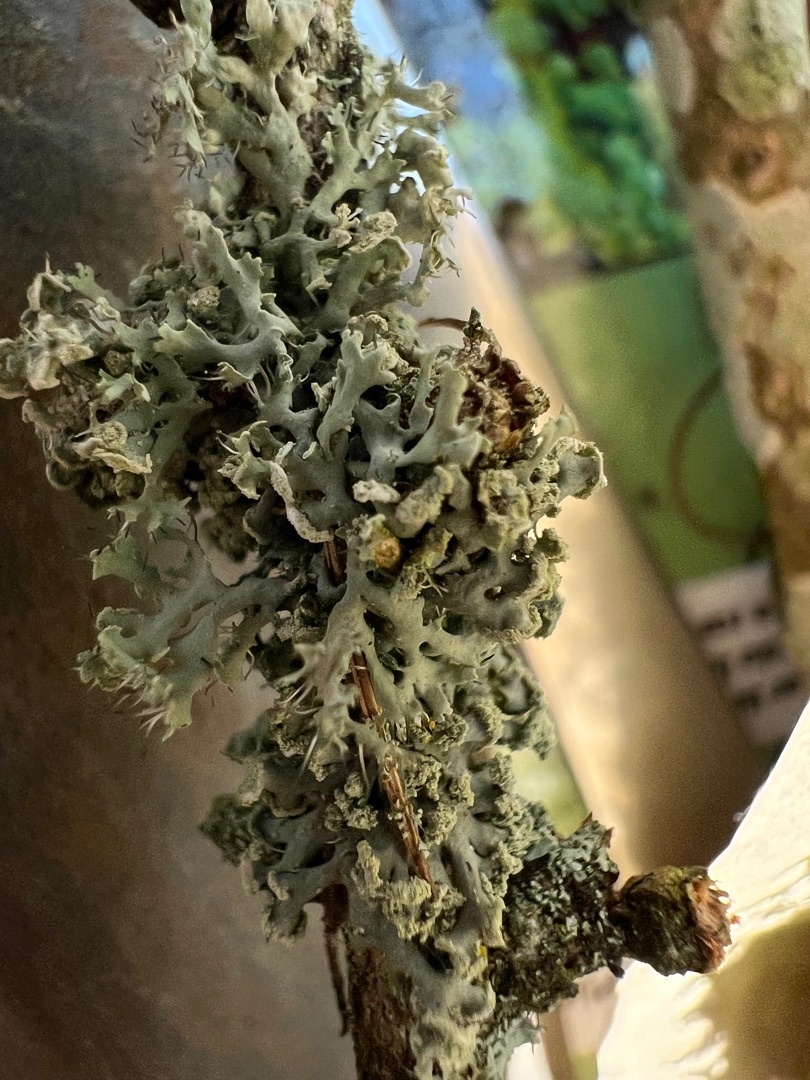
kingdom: Fungi
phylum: Ascomycota
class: Lecanoromycetes
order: Caliciales
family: Physciaceae
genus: Physcia
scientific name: Physcia tenella
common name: Spæd rosetlav
